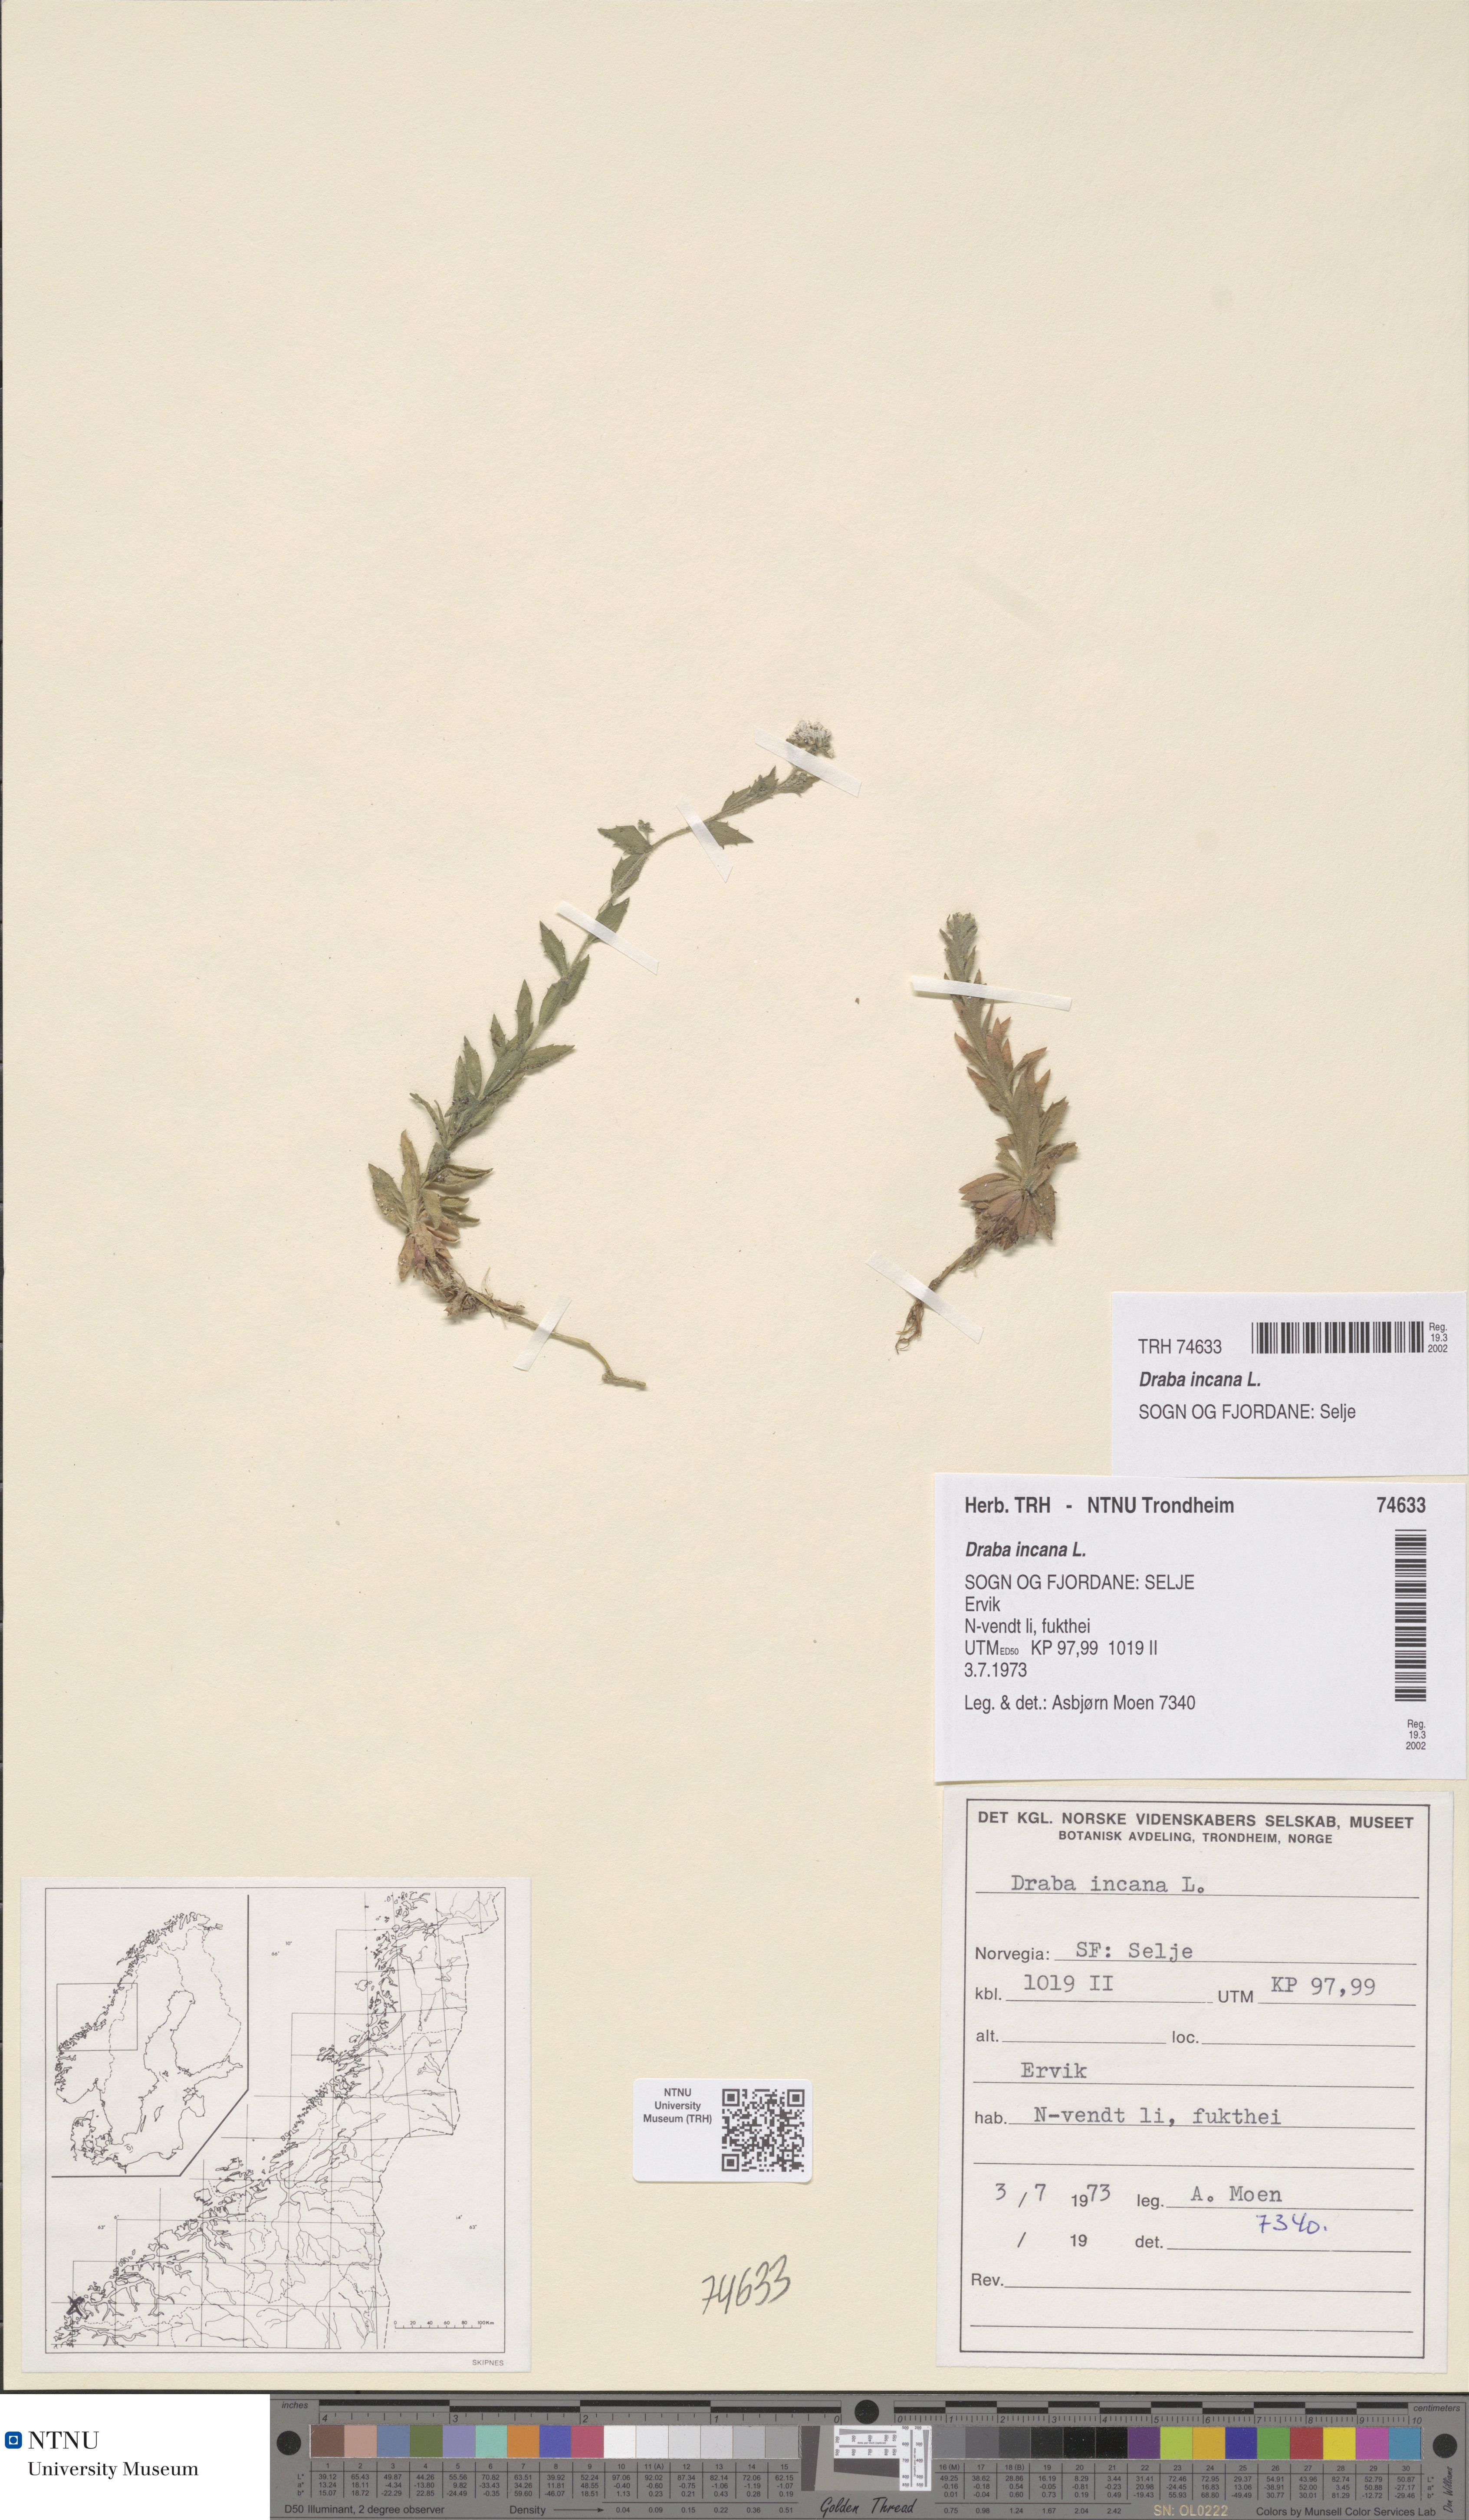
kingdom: Plantae
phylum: Tracheophyta
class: Magnoliopsida
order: Brassicales
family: Brassicaceae
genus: Draba
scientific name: Draba incana
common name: Hoary whitlow-grass
